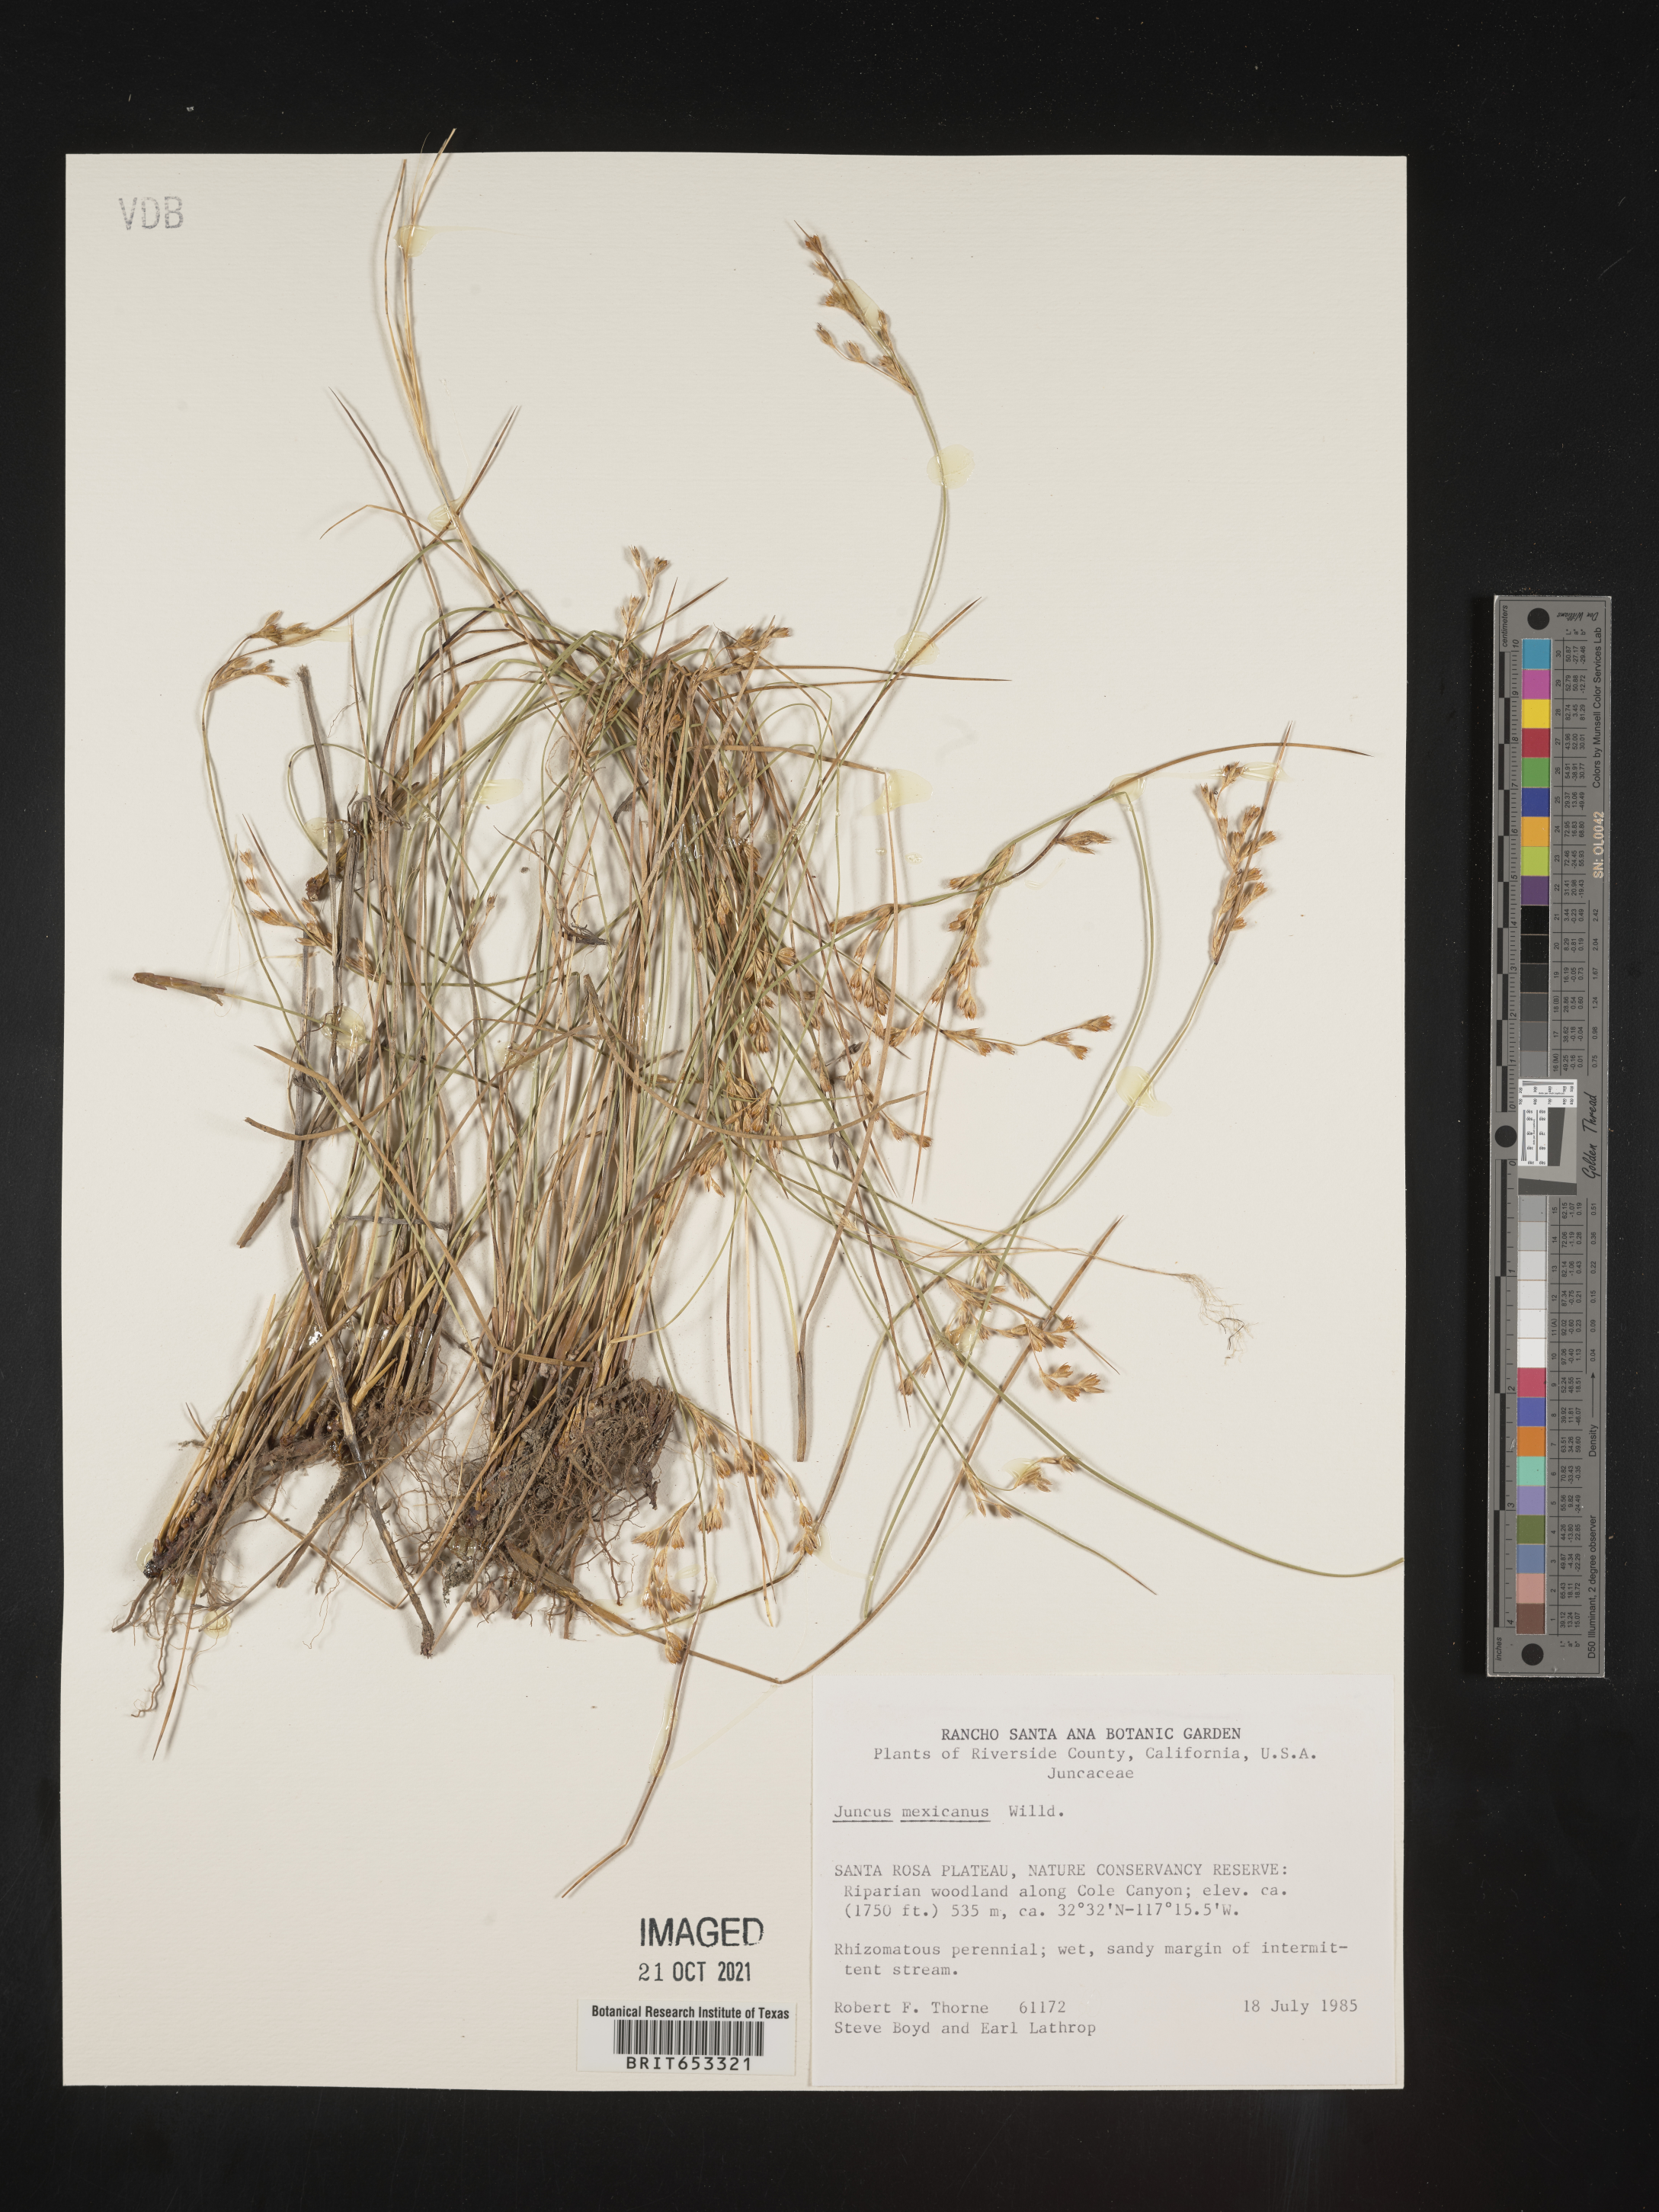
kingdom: Plantae
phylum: Tracheophyta
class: Liliopsida
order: Poales
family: Juncaceae
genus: Juncus
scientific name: Juncus balticus
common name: Baltic rush
